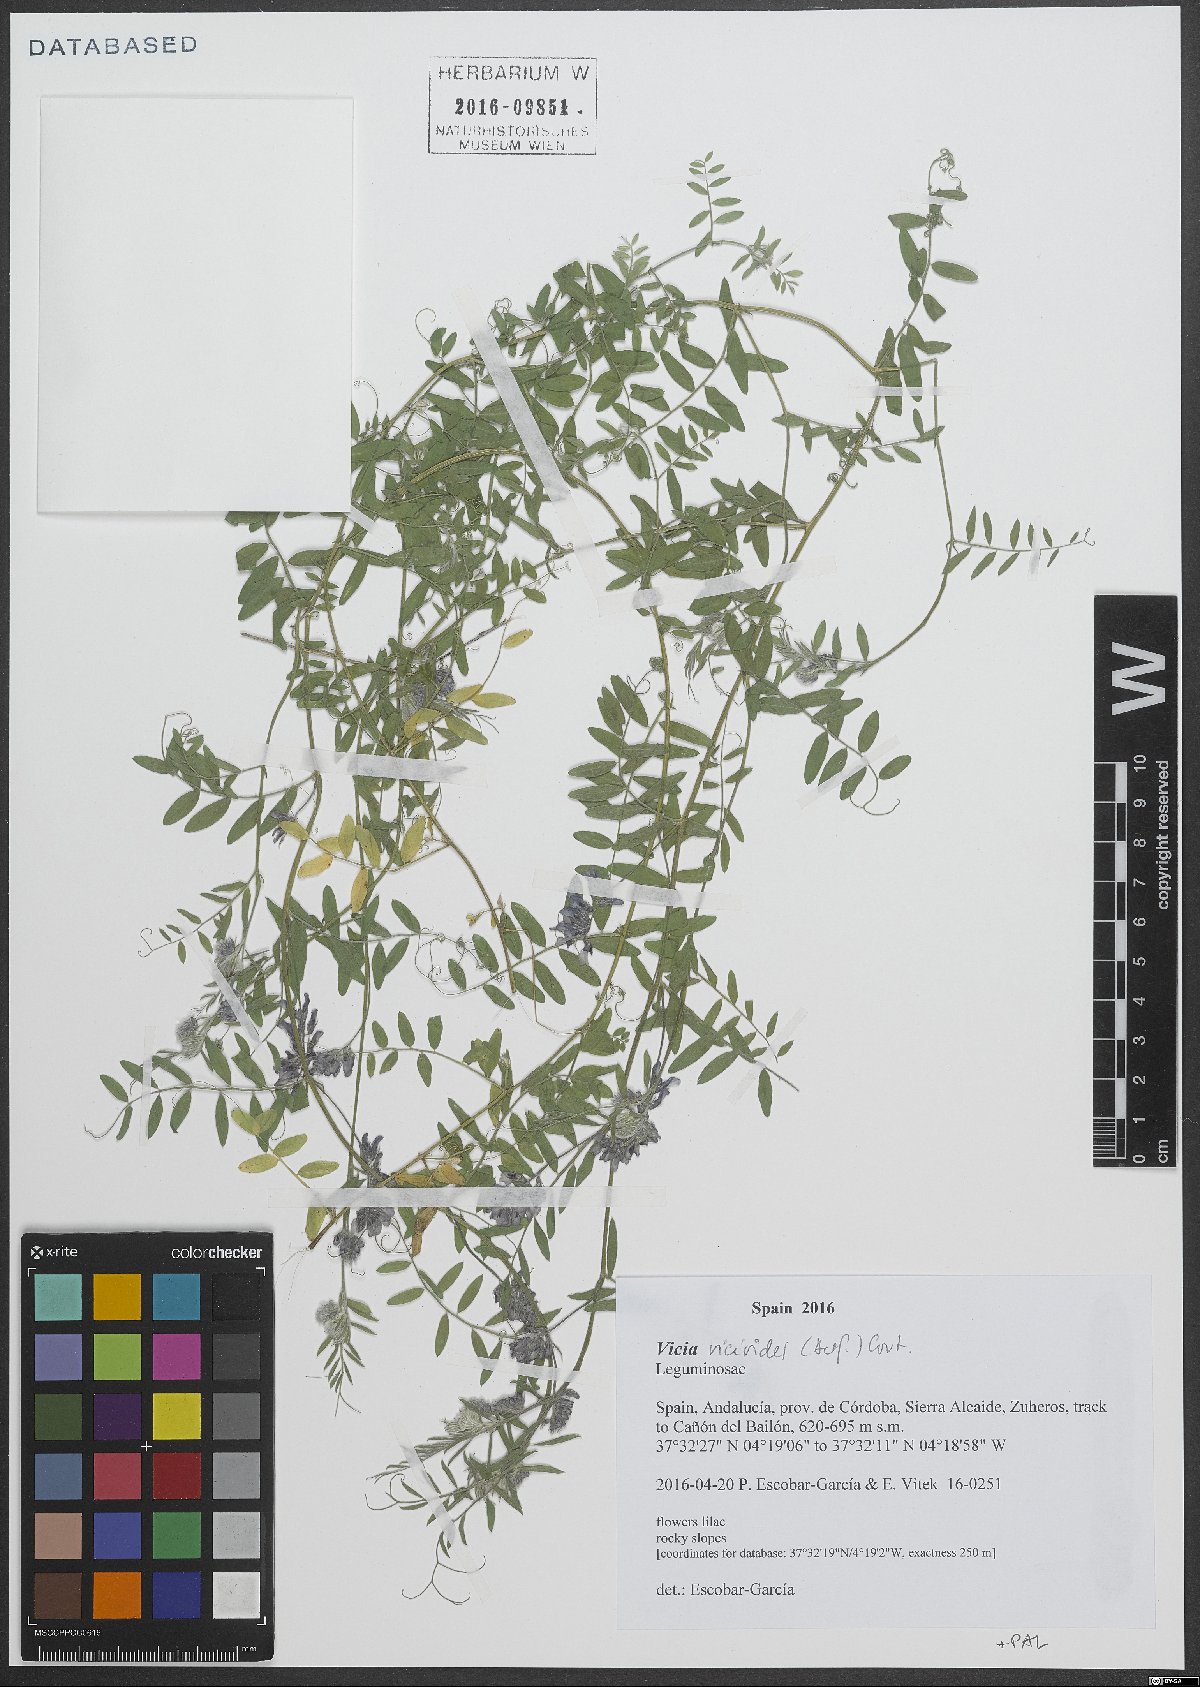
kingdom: Plantae
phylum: Tracheophyta
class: Magnoliopsida
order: Fabales
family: Fabaceae
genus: Vicia
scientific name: Vicia vicioides
